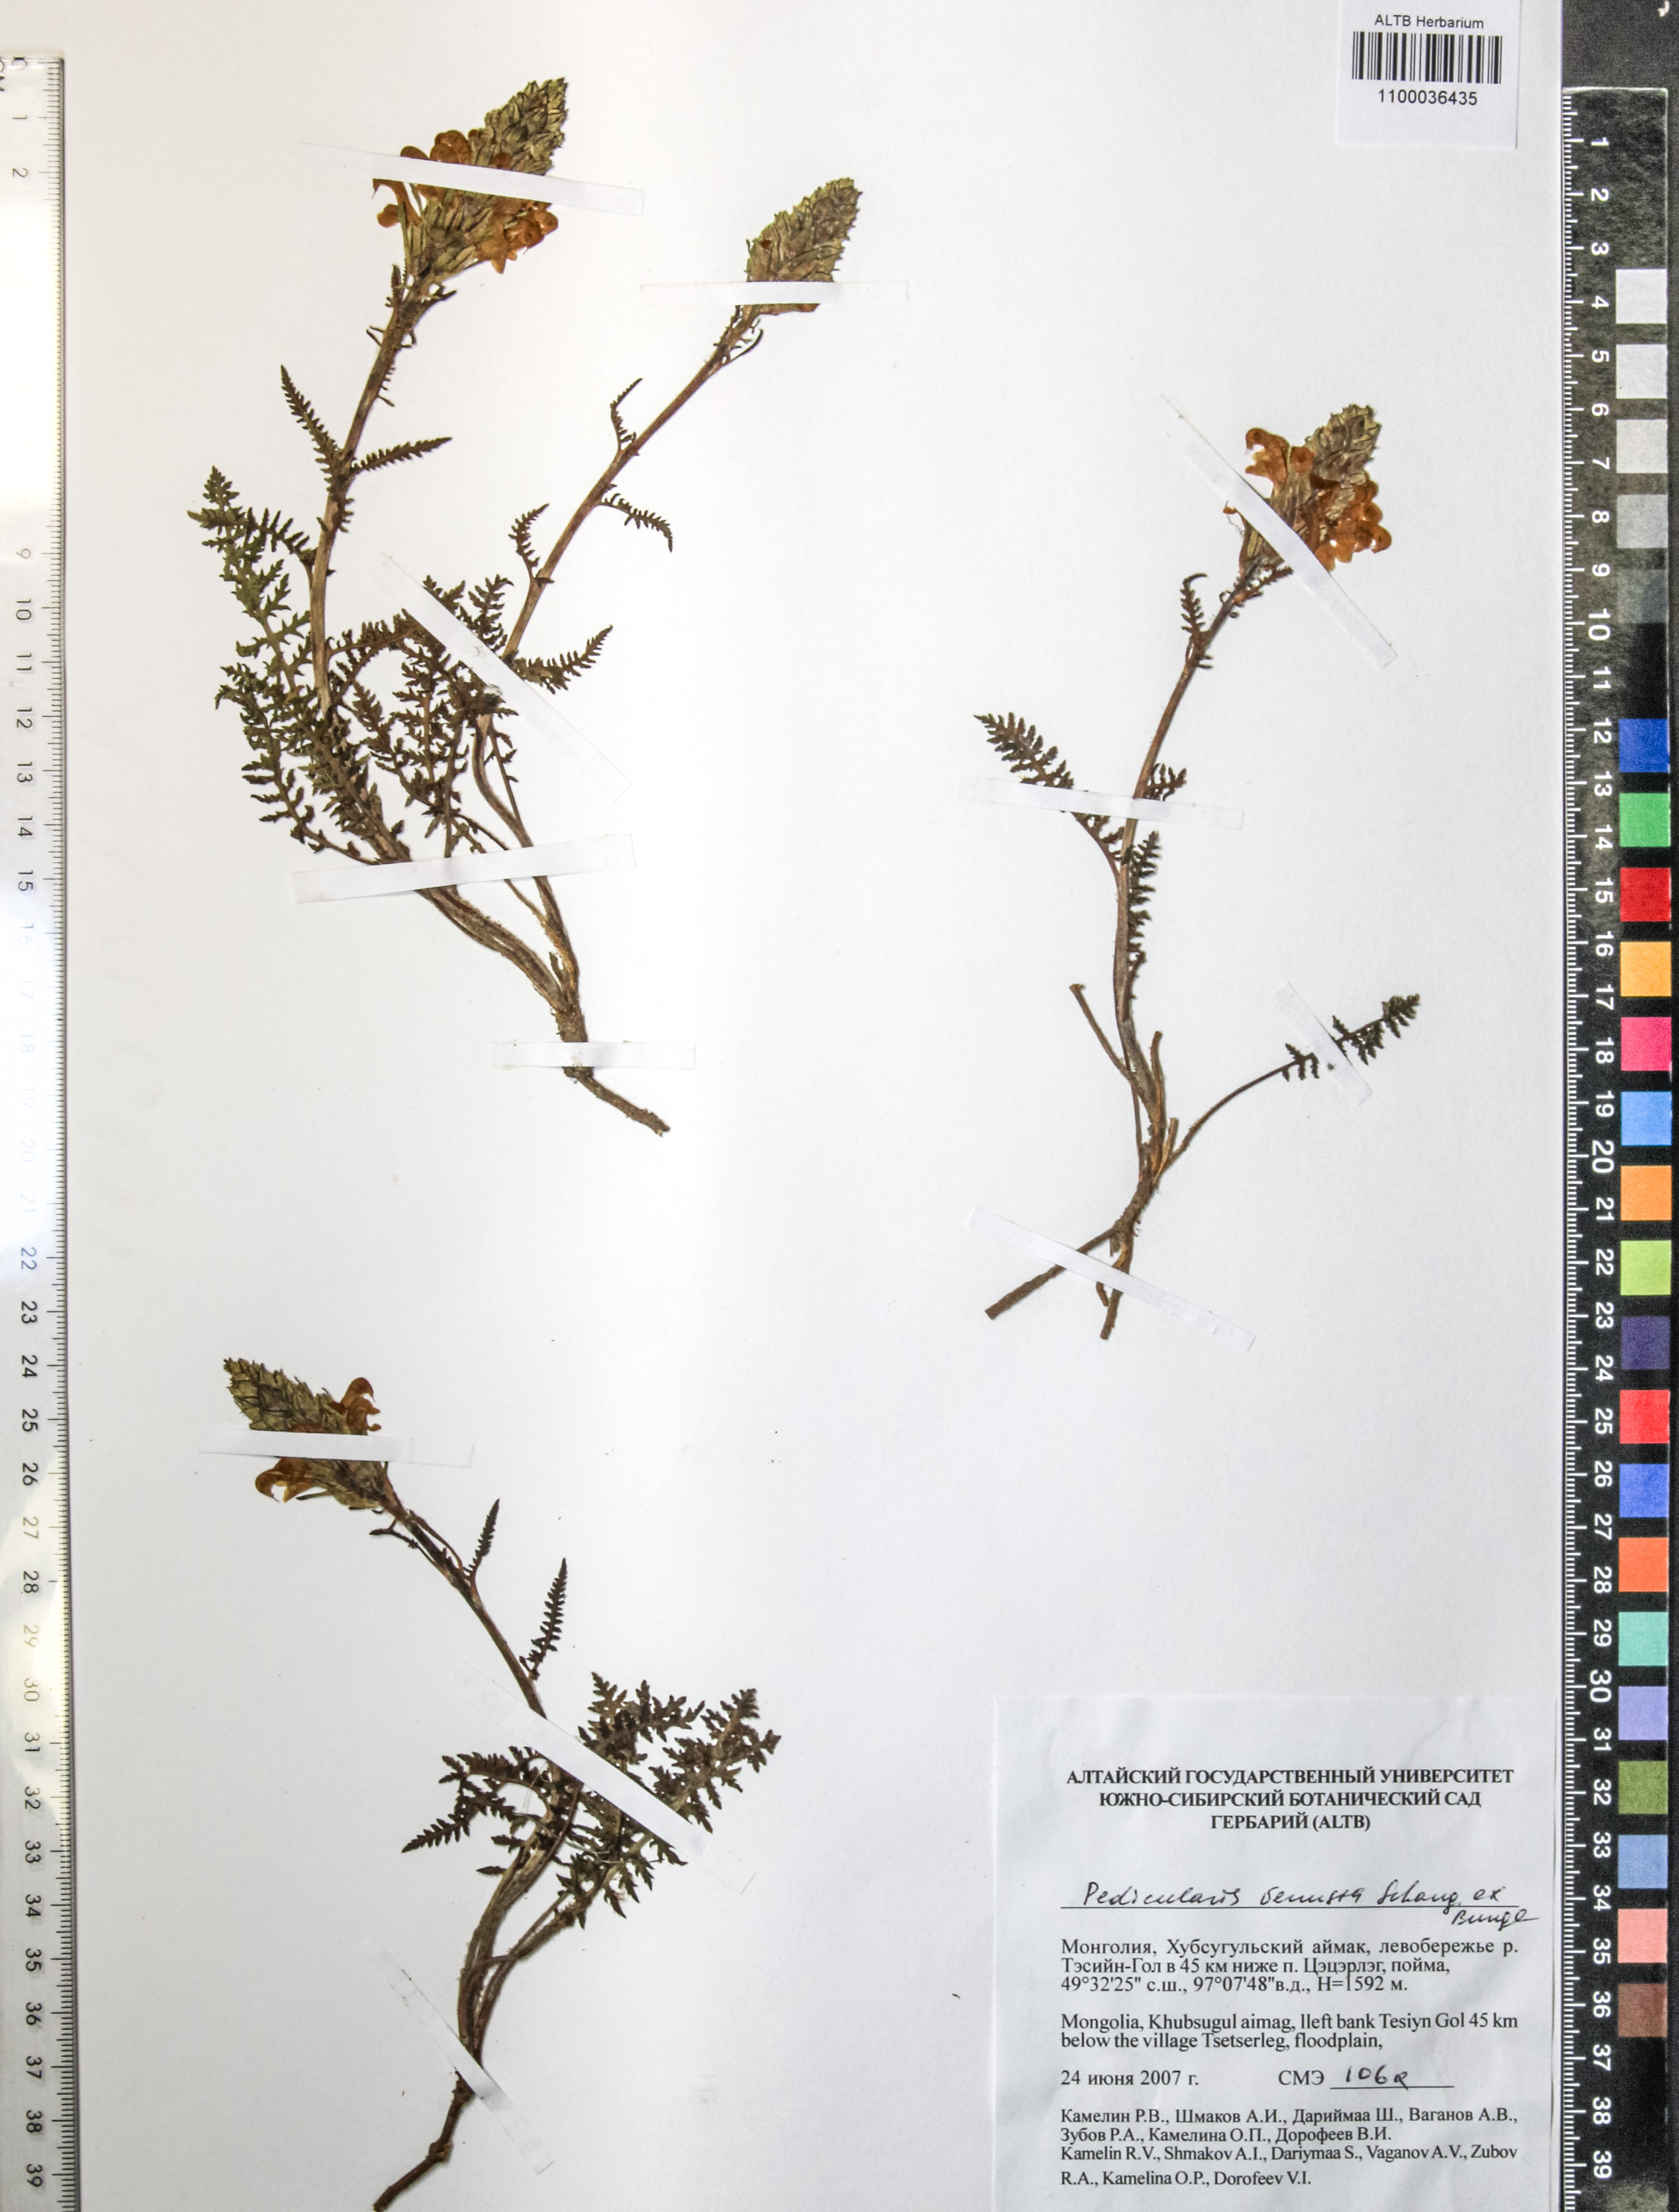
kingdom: Plantae
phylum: Tracheophyta
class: Magnoliopsida
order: Lamiales
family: Orobanchaceae
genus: Pedicularis
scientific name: Pedicularis venusta
